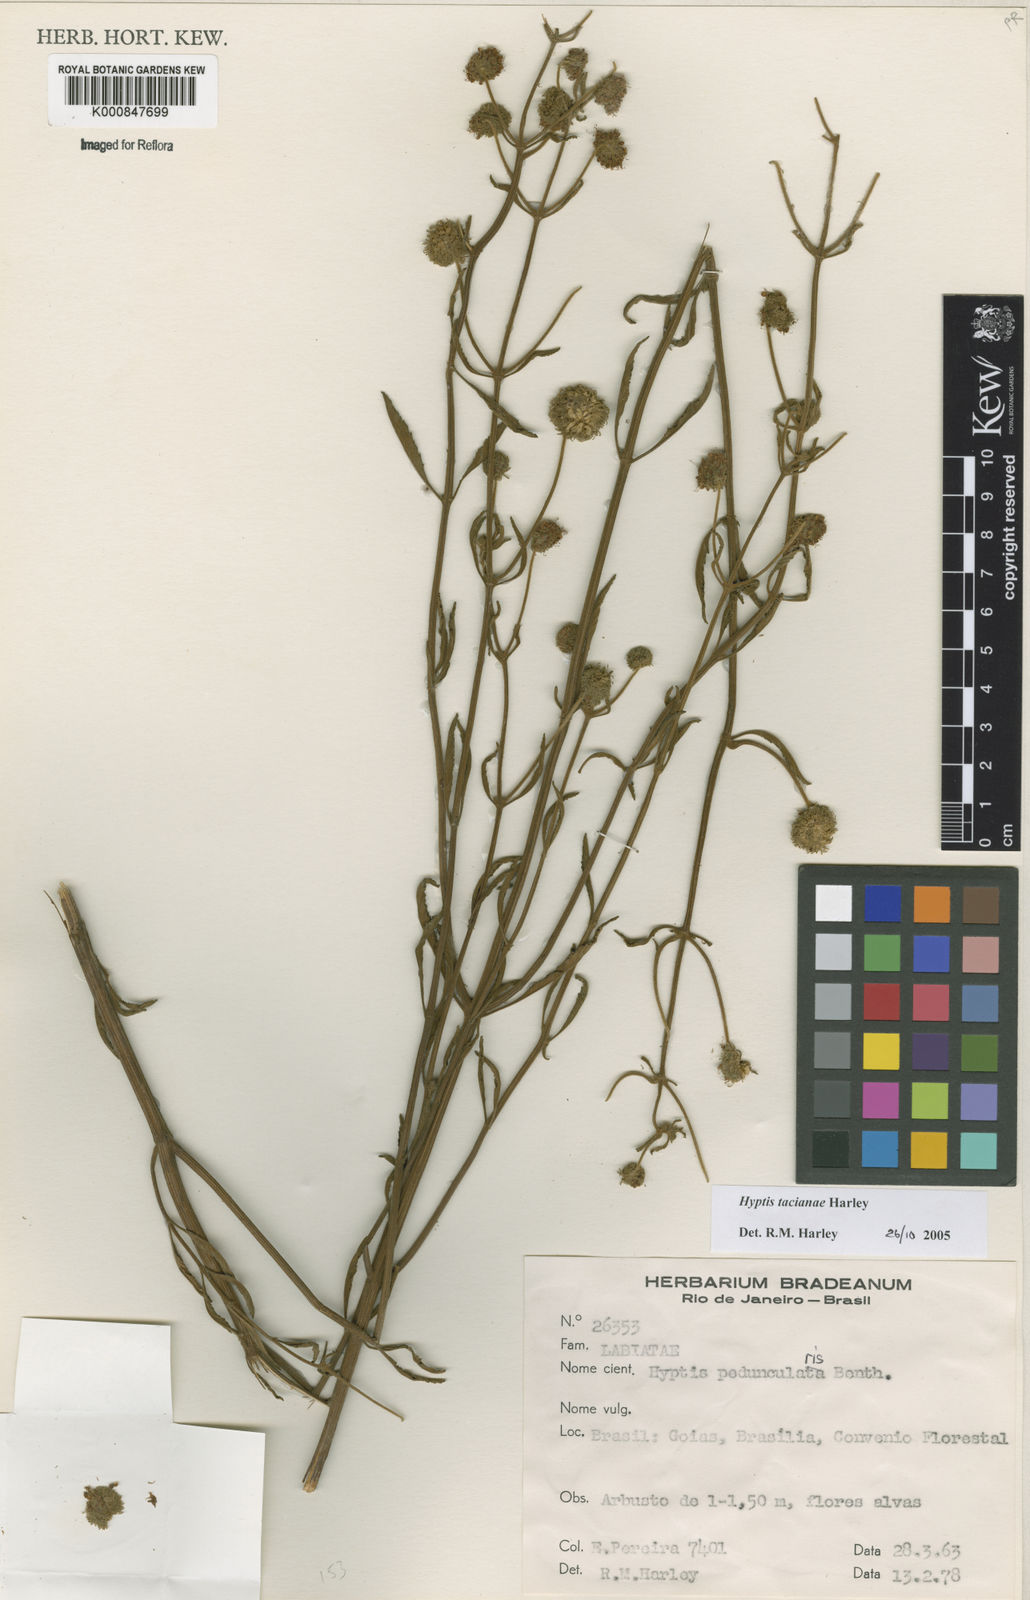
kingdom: Plantae
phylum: Tracheophyta
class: Magnoliopsida
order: Lamiales
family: Lamiaceae
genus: Cyanocephalus
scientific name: Cyanocephalus tacianae
